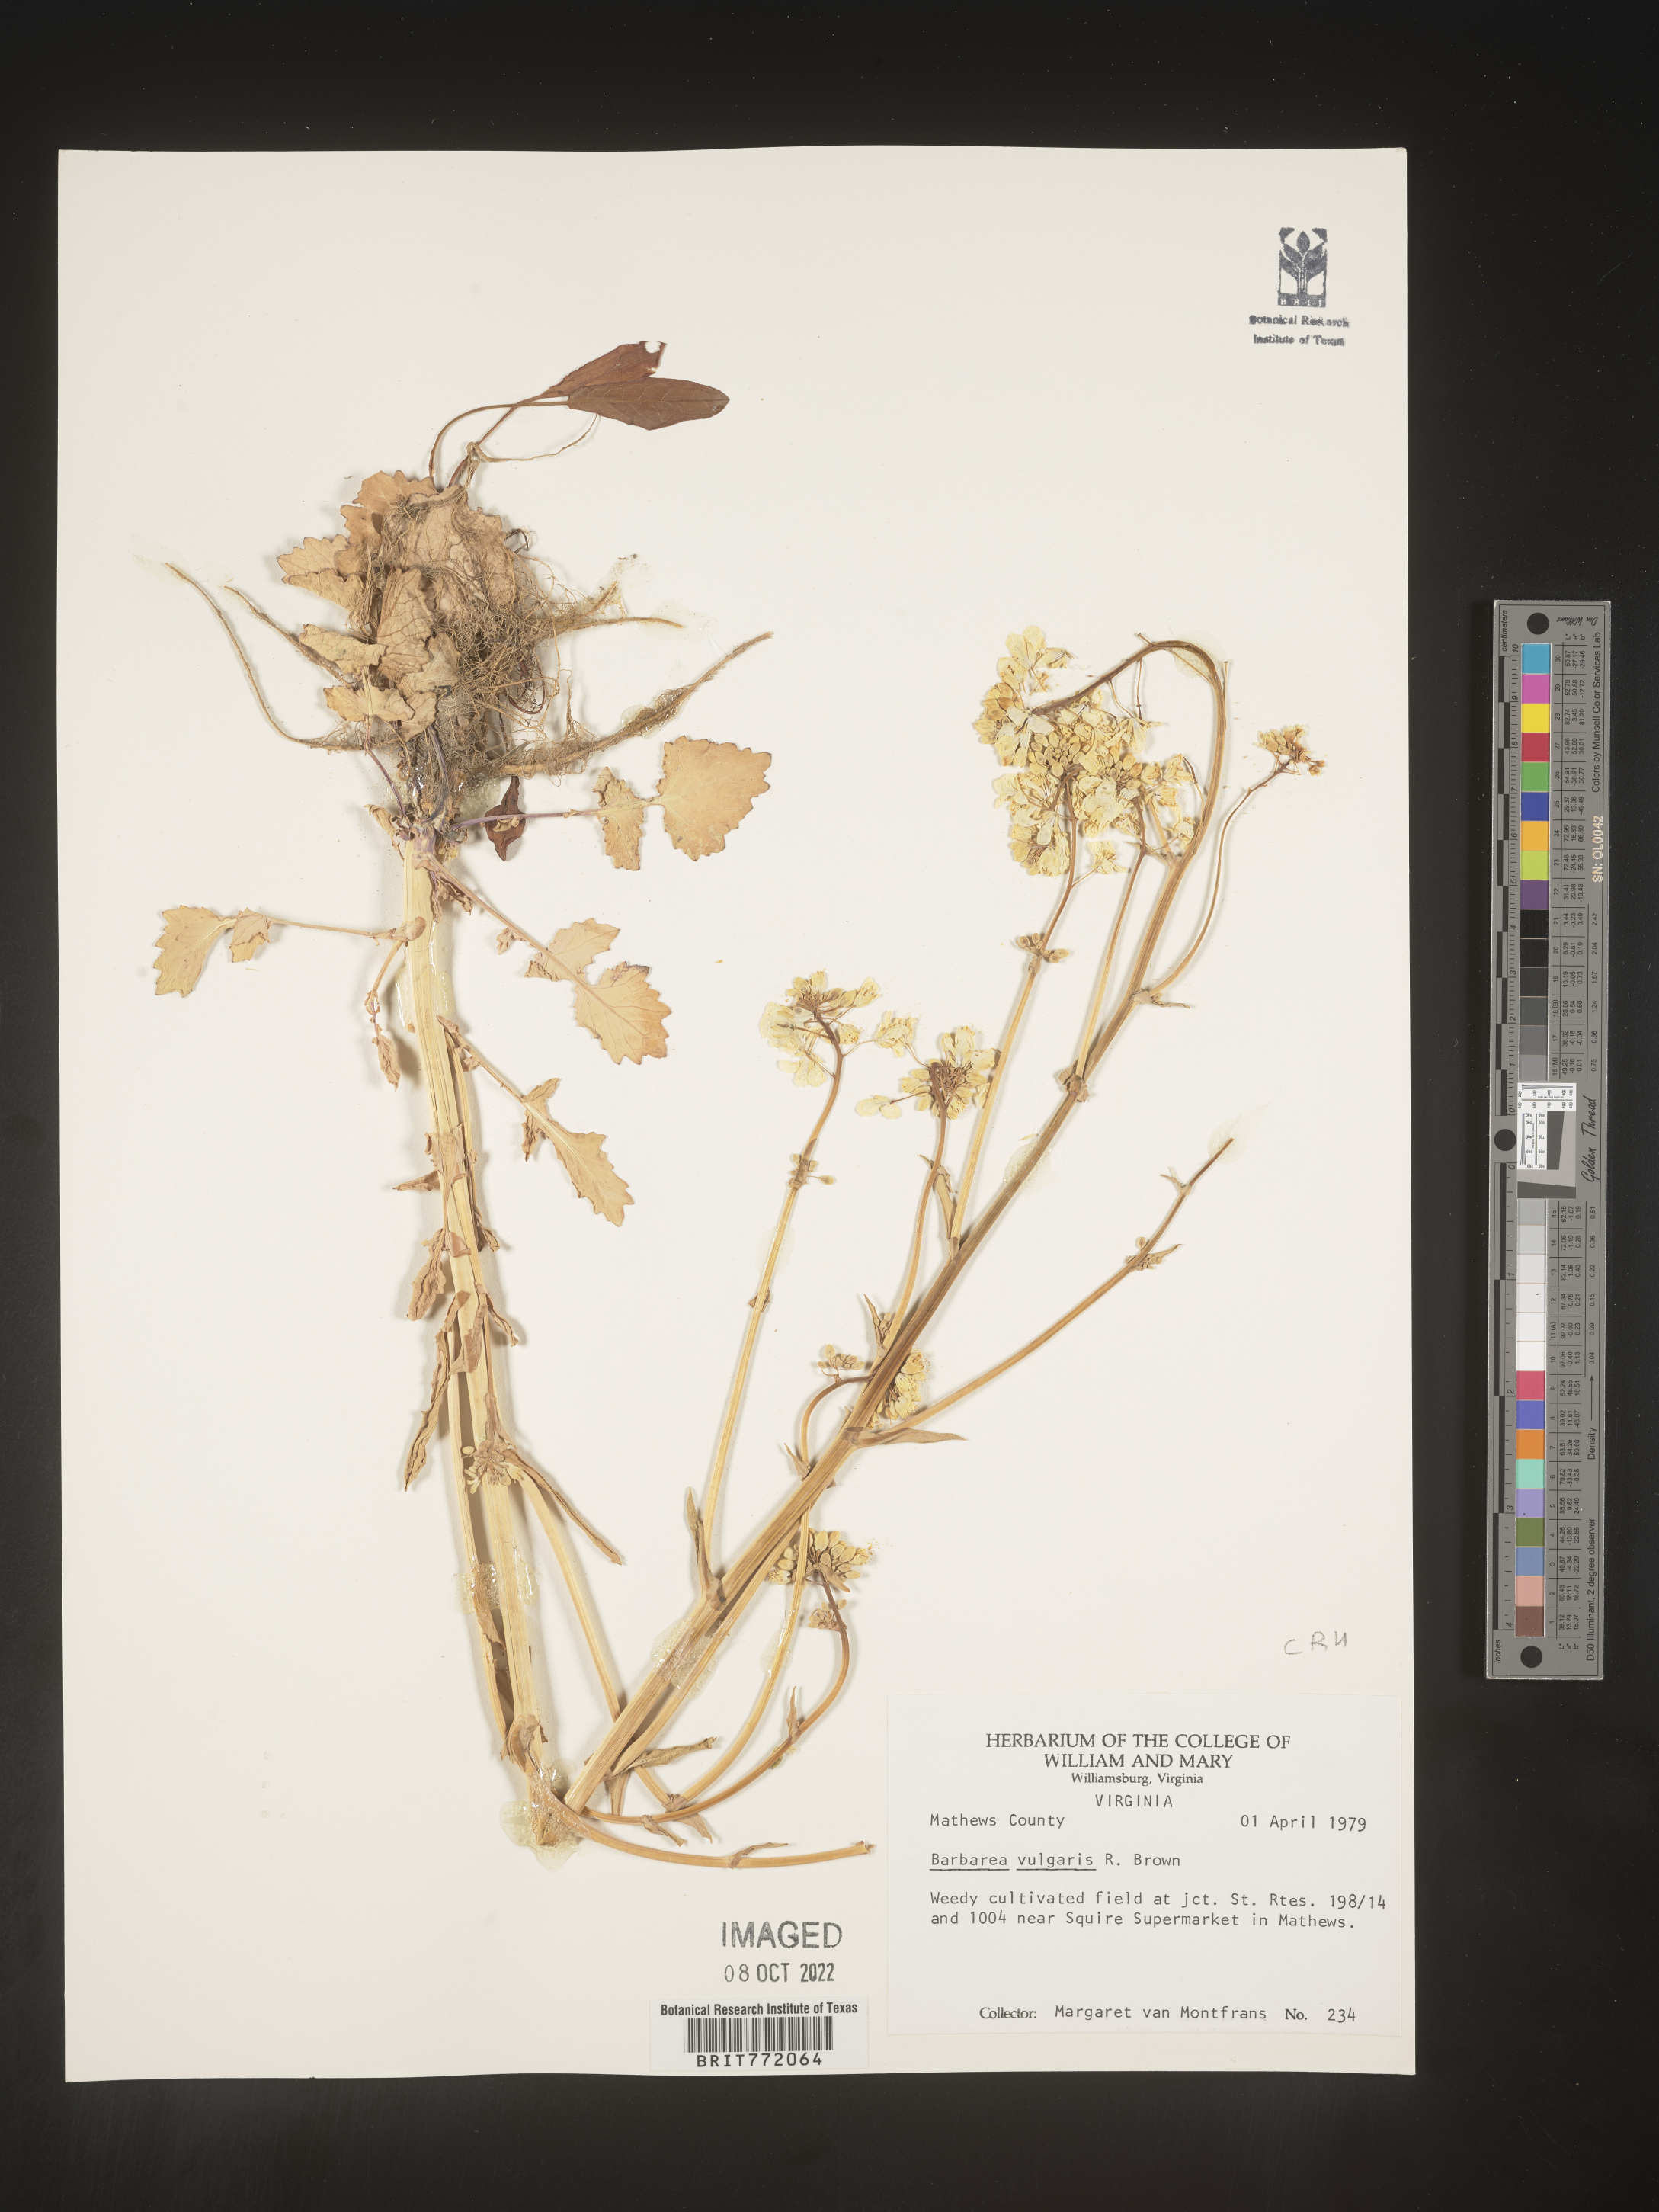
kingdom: Plantae
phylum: Tracheophyta
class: Magnoliopsida
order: Brassicales
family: Brassicaceae
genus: Barbarea
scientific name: Barbarea vulgaris
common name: Cressy-greens
